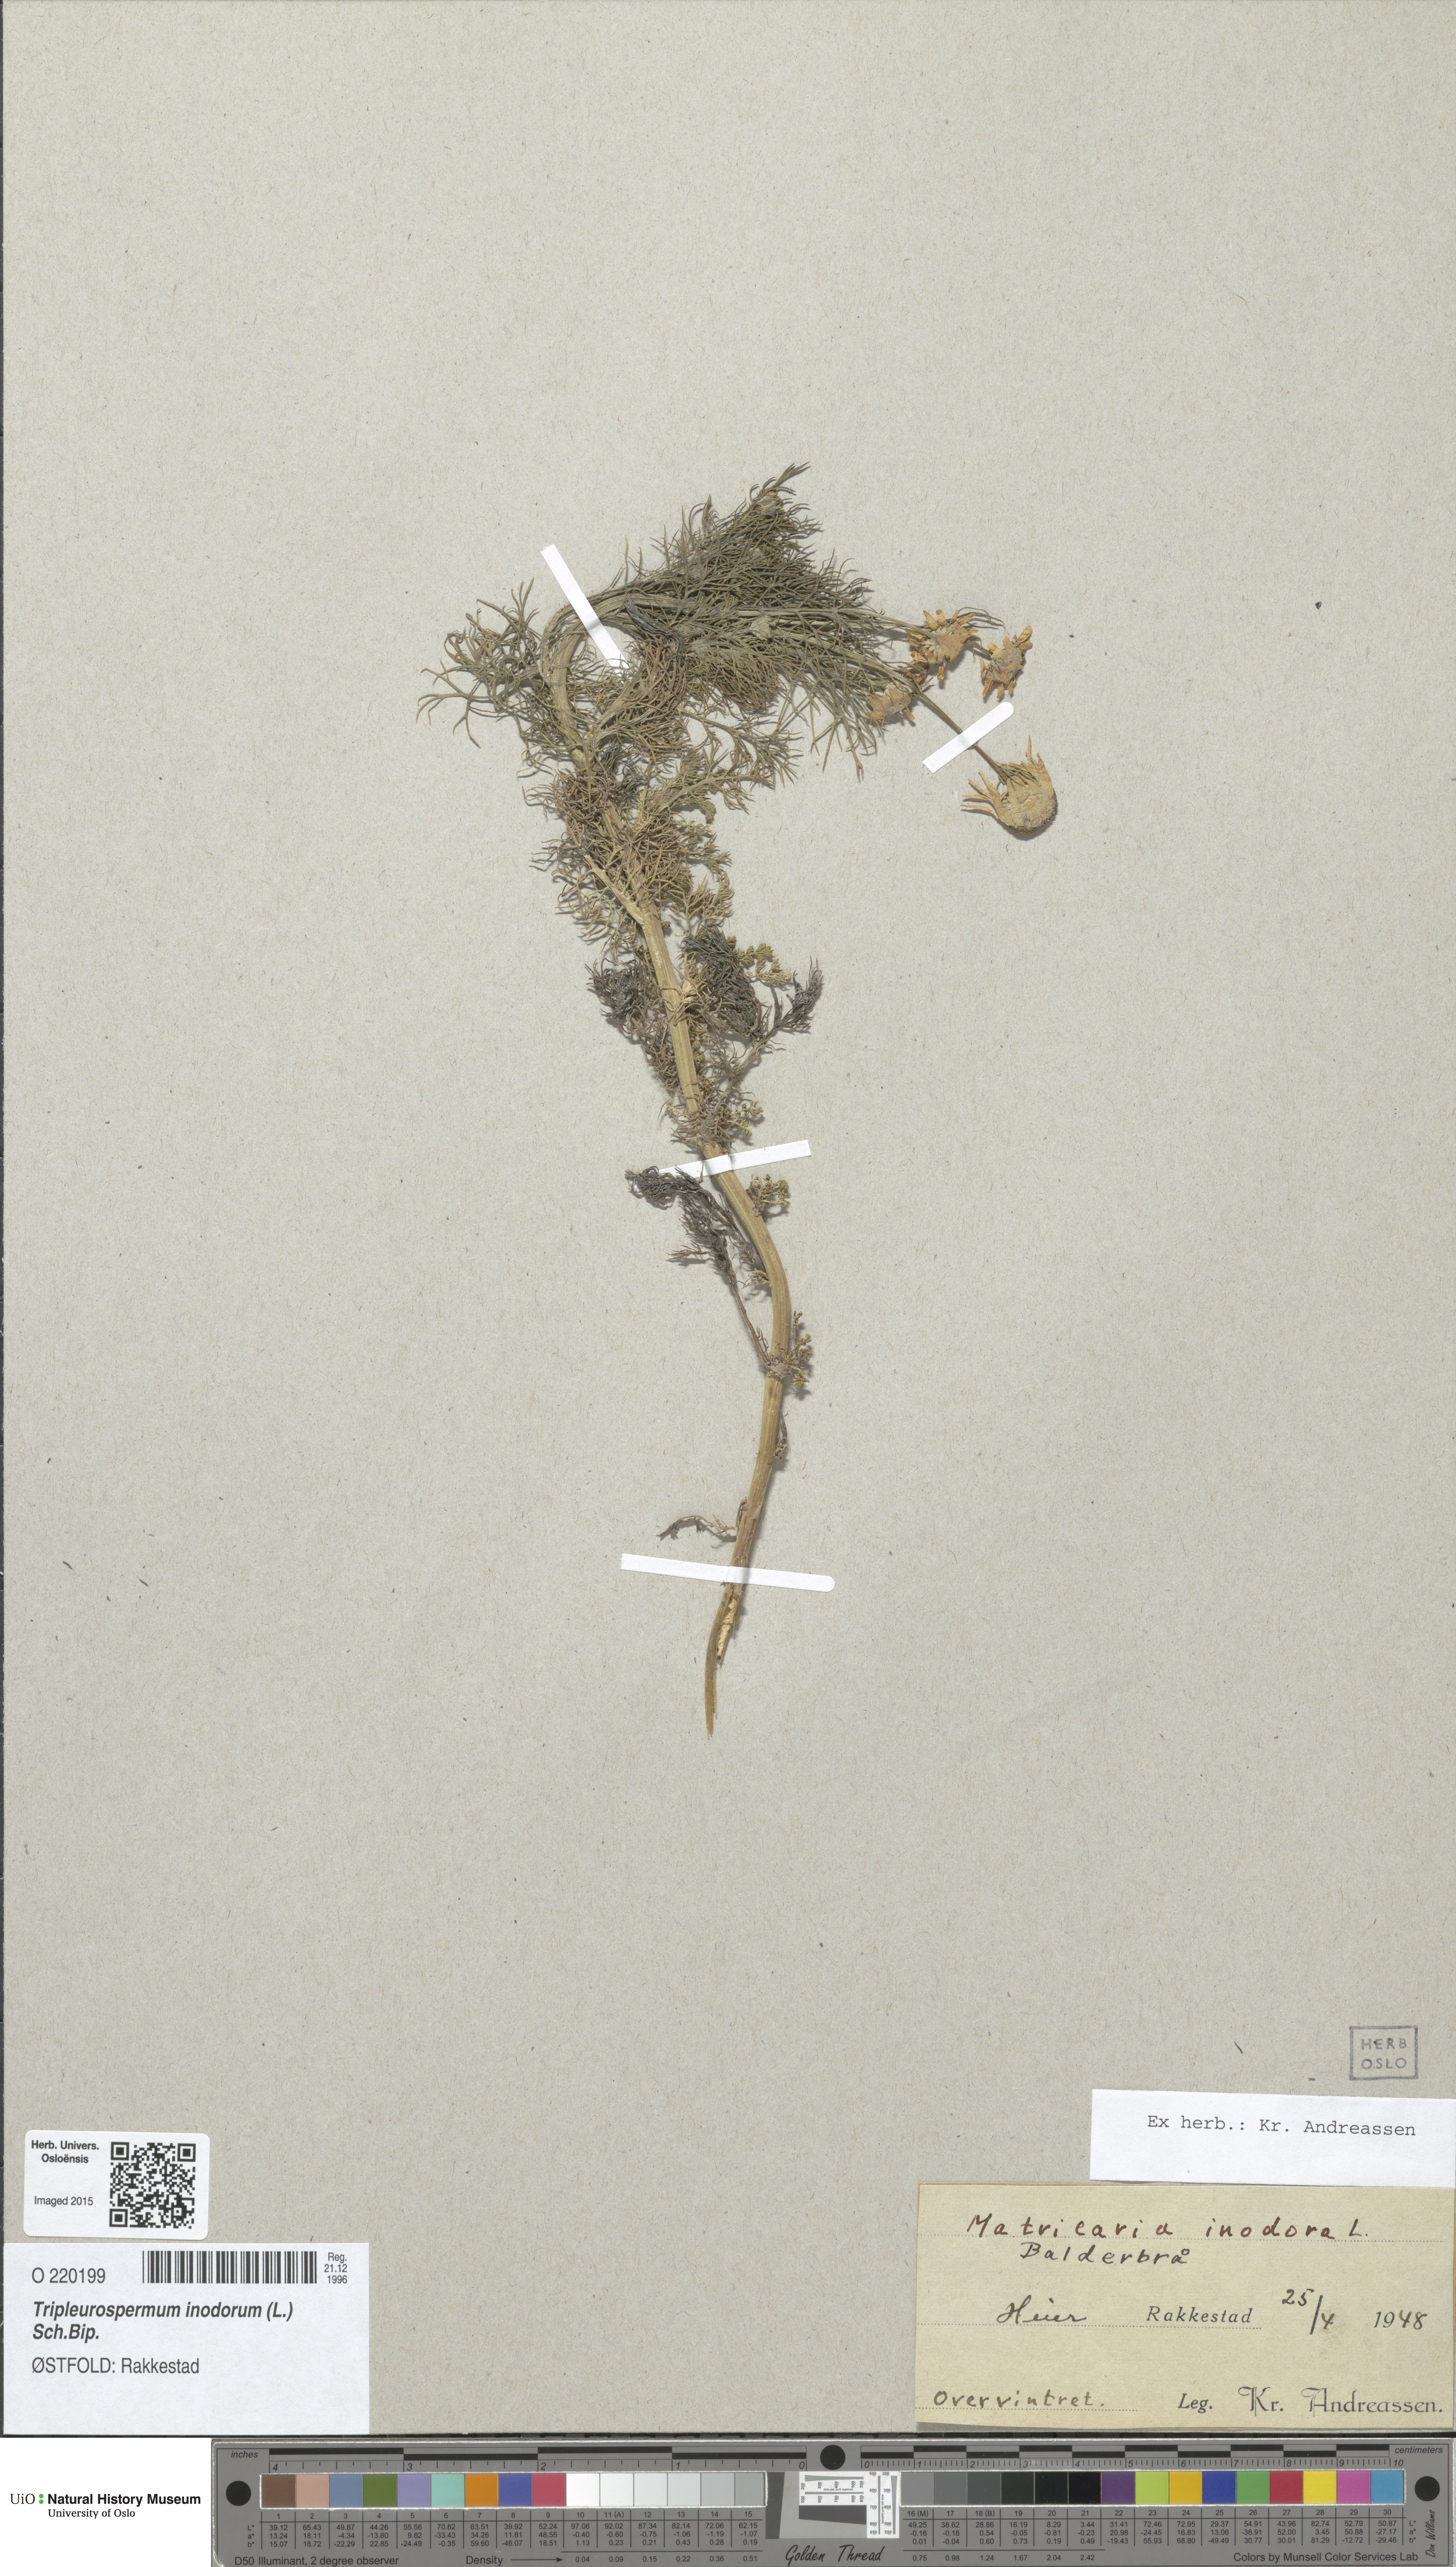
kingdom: Plantae
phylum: Tracheophyta
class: Magnoliopsida
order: Asterales
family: Asteraceae
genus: Tripleurospermum
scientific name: Tripleurospermum inodorum
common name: Scentless mayweed
